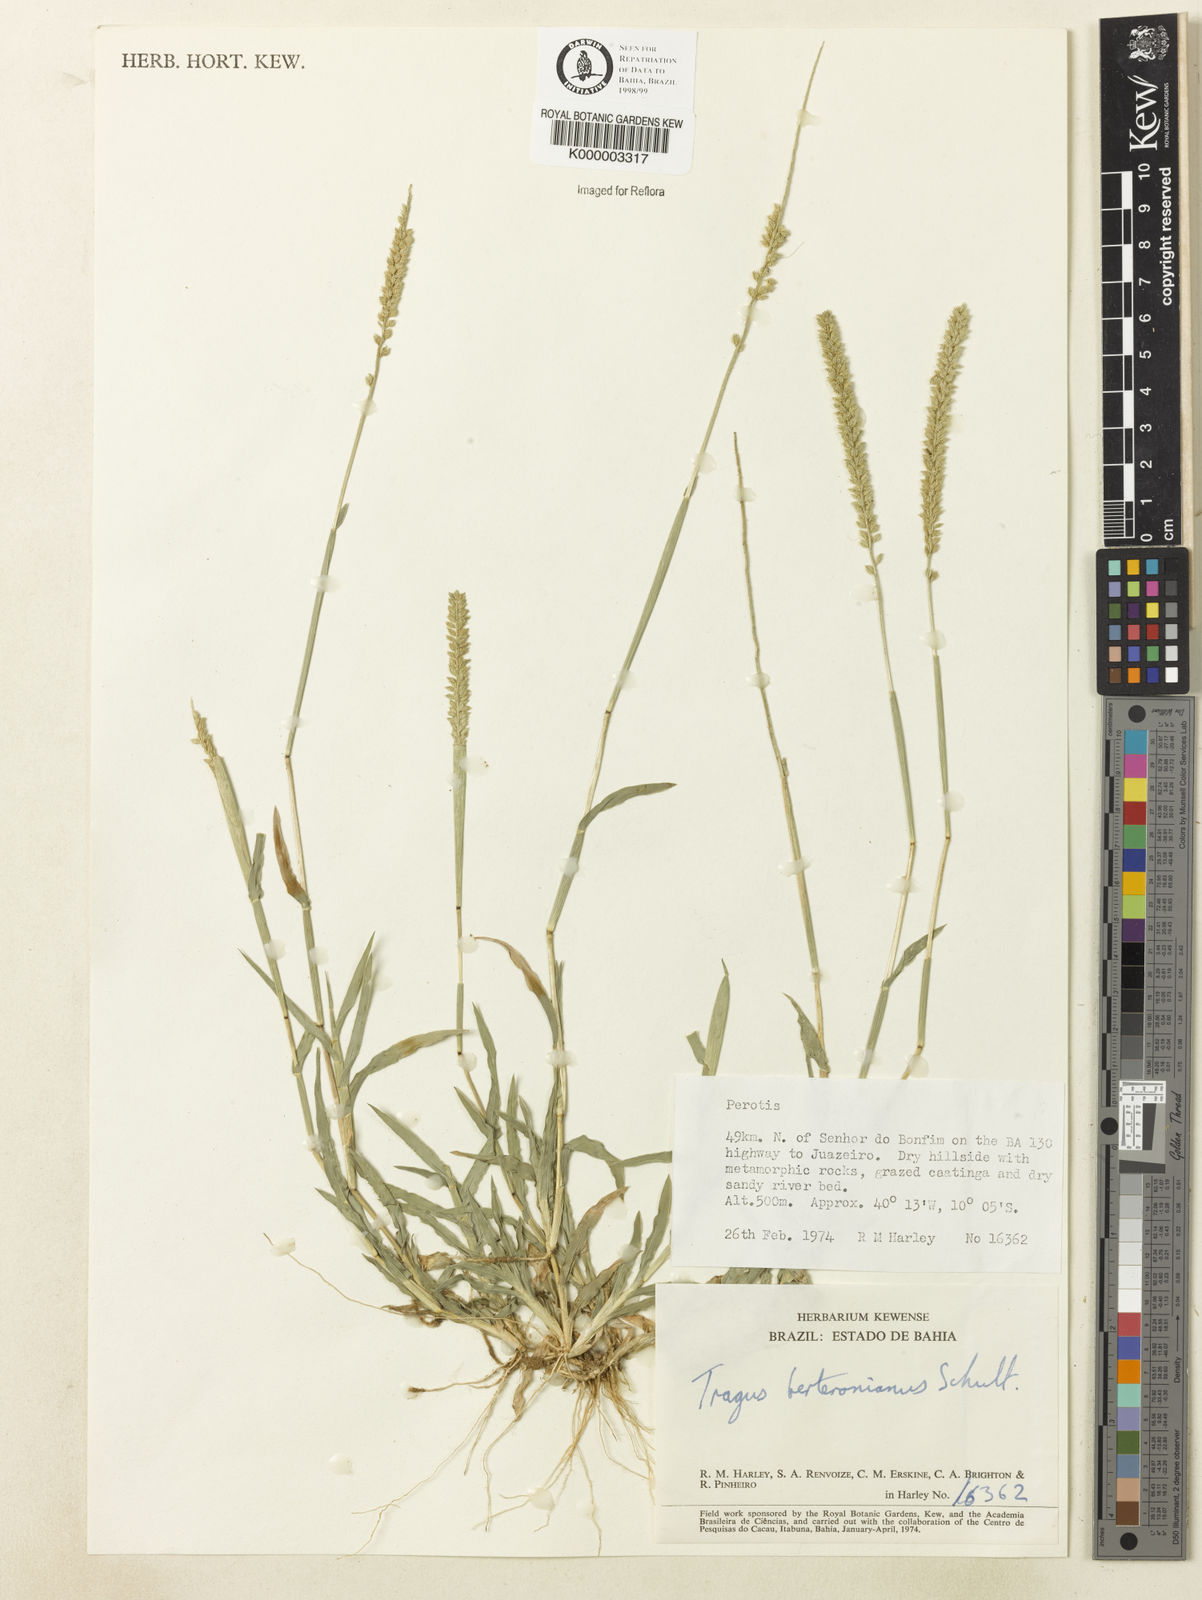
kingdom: Plantae
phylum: Tracheophyta
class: Liliopsida
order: Poales
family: Poaceae
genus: Tragus
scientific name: Tragus berteronianus
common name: African bur-grass
